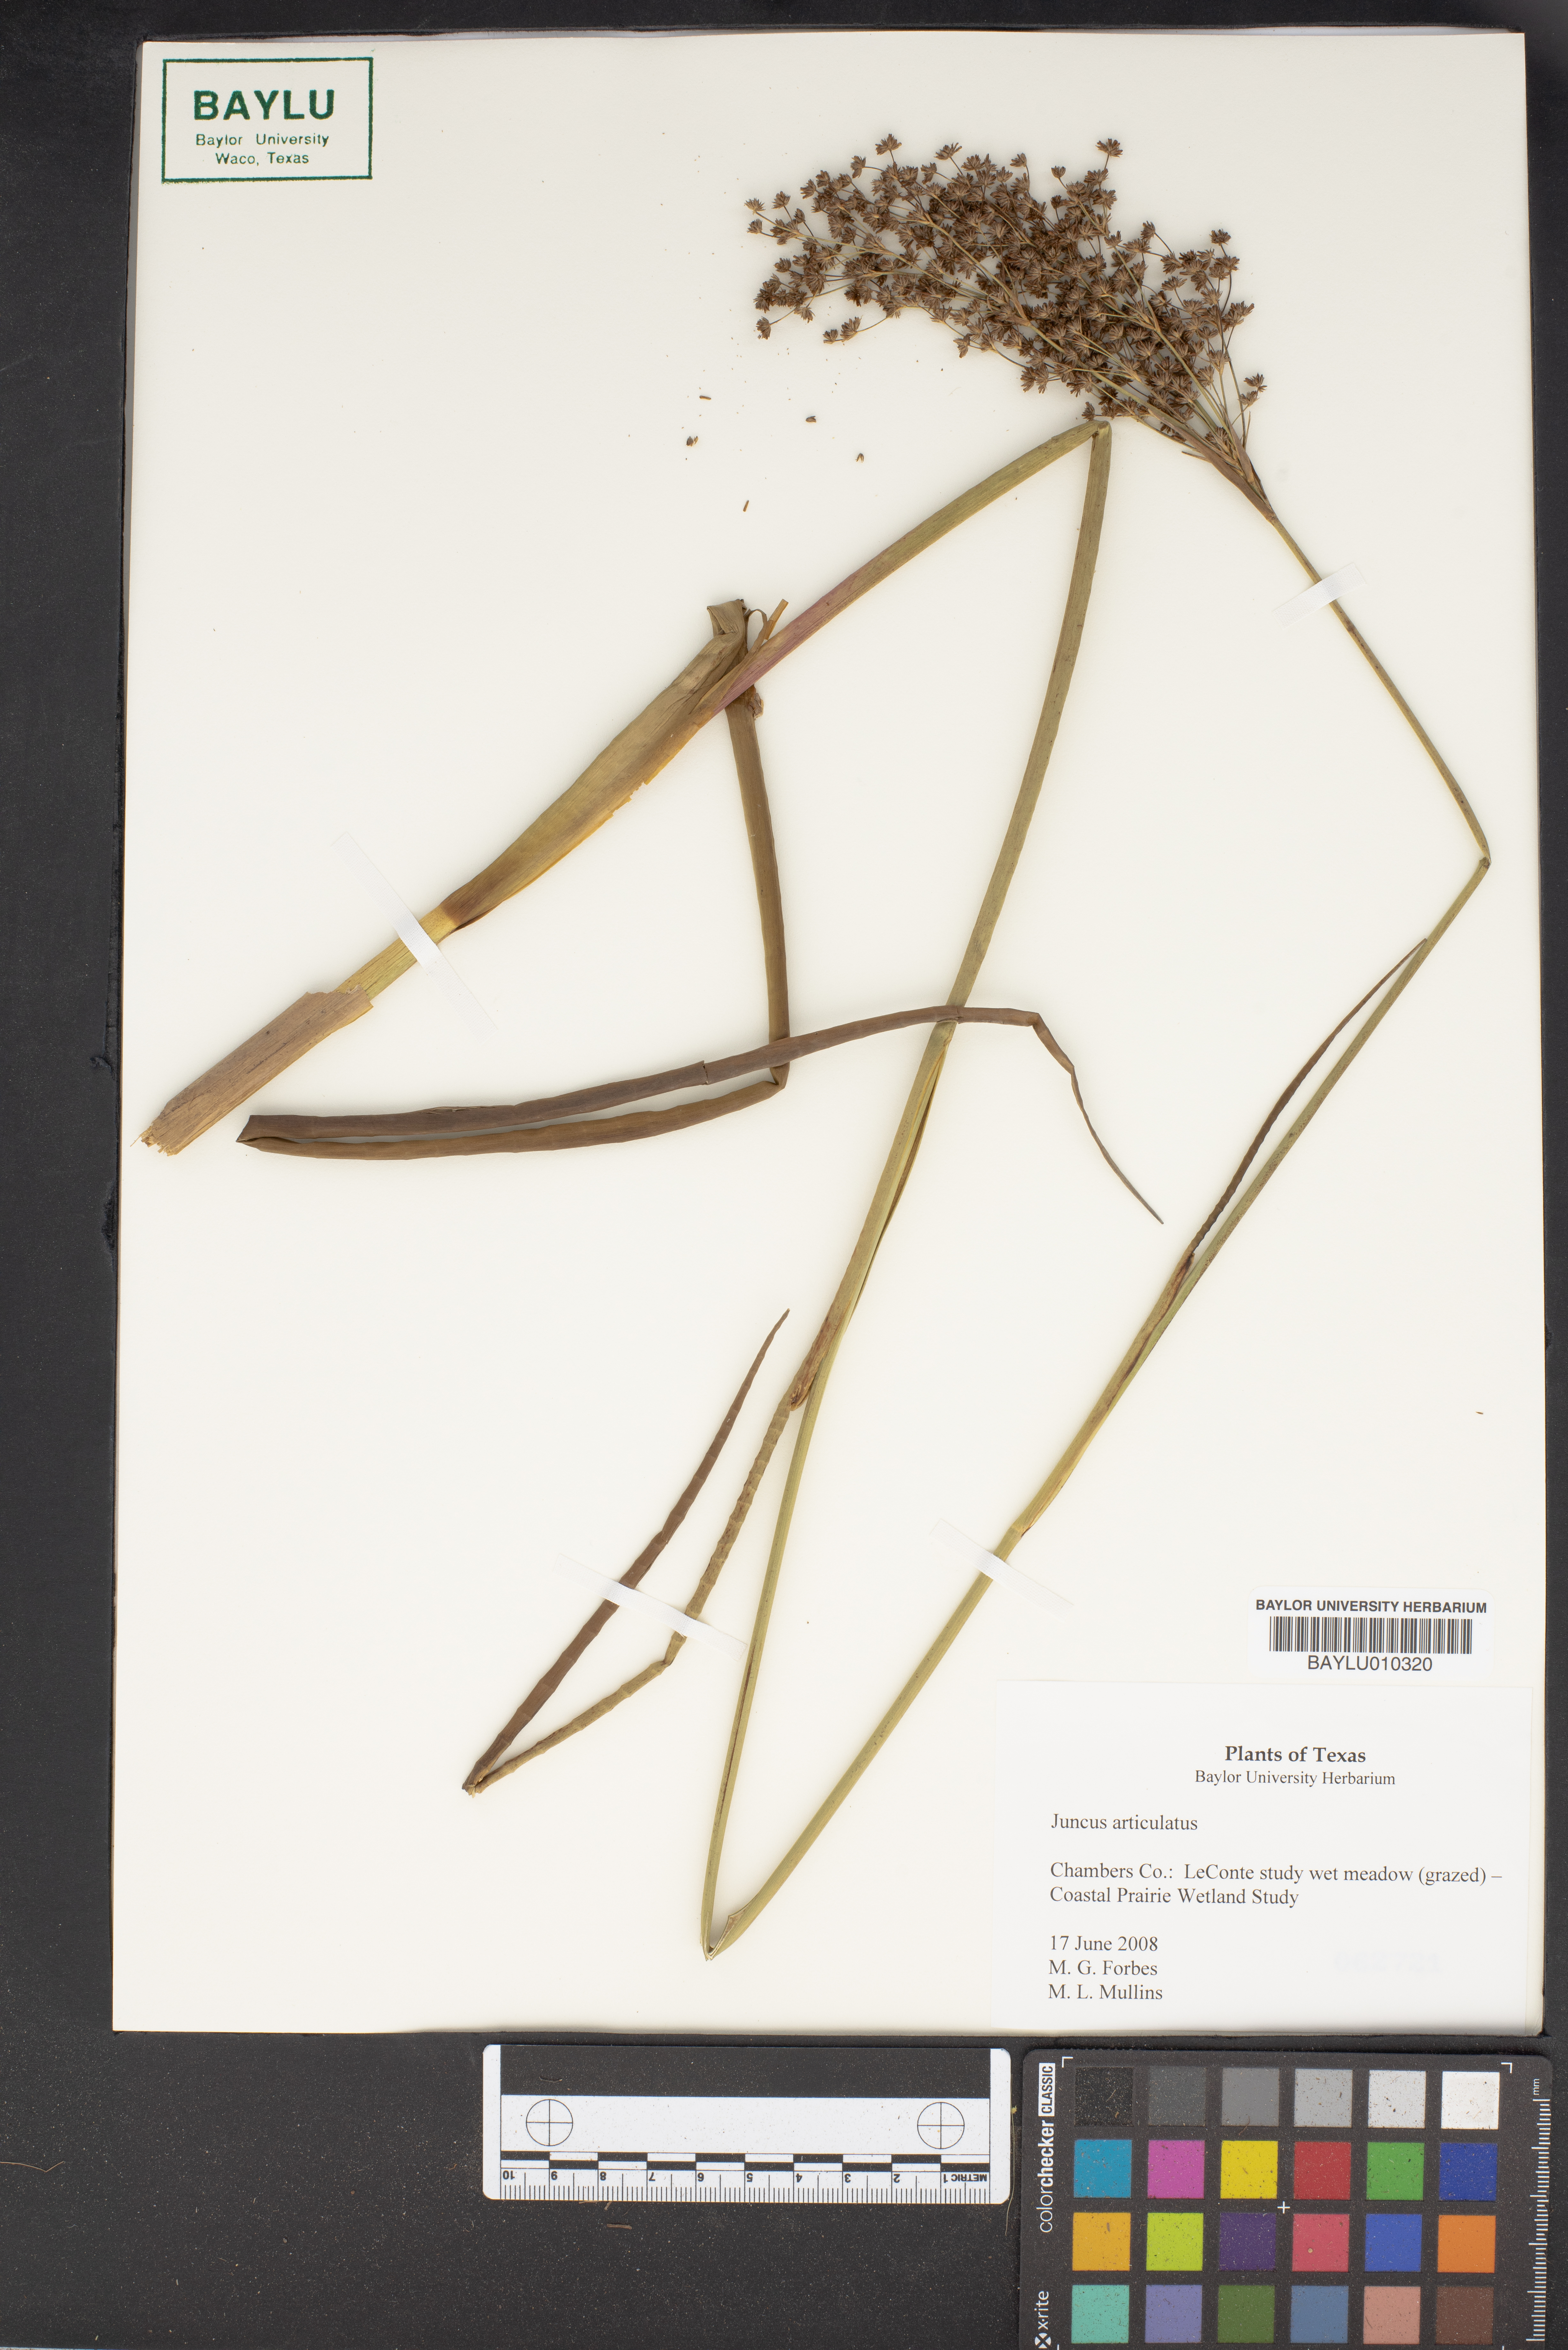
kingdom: Plantae
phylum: Tracheophyta
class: Liliopsida
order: Poales
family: Juncaceae
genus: Juncus
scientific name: Juncus articulatus
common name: Jointed rush
